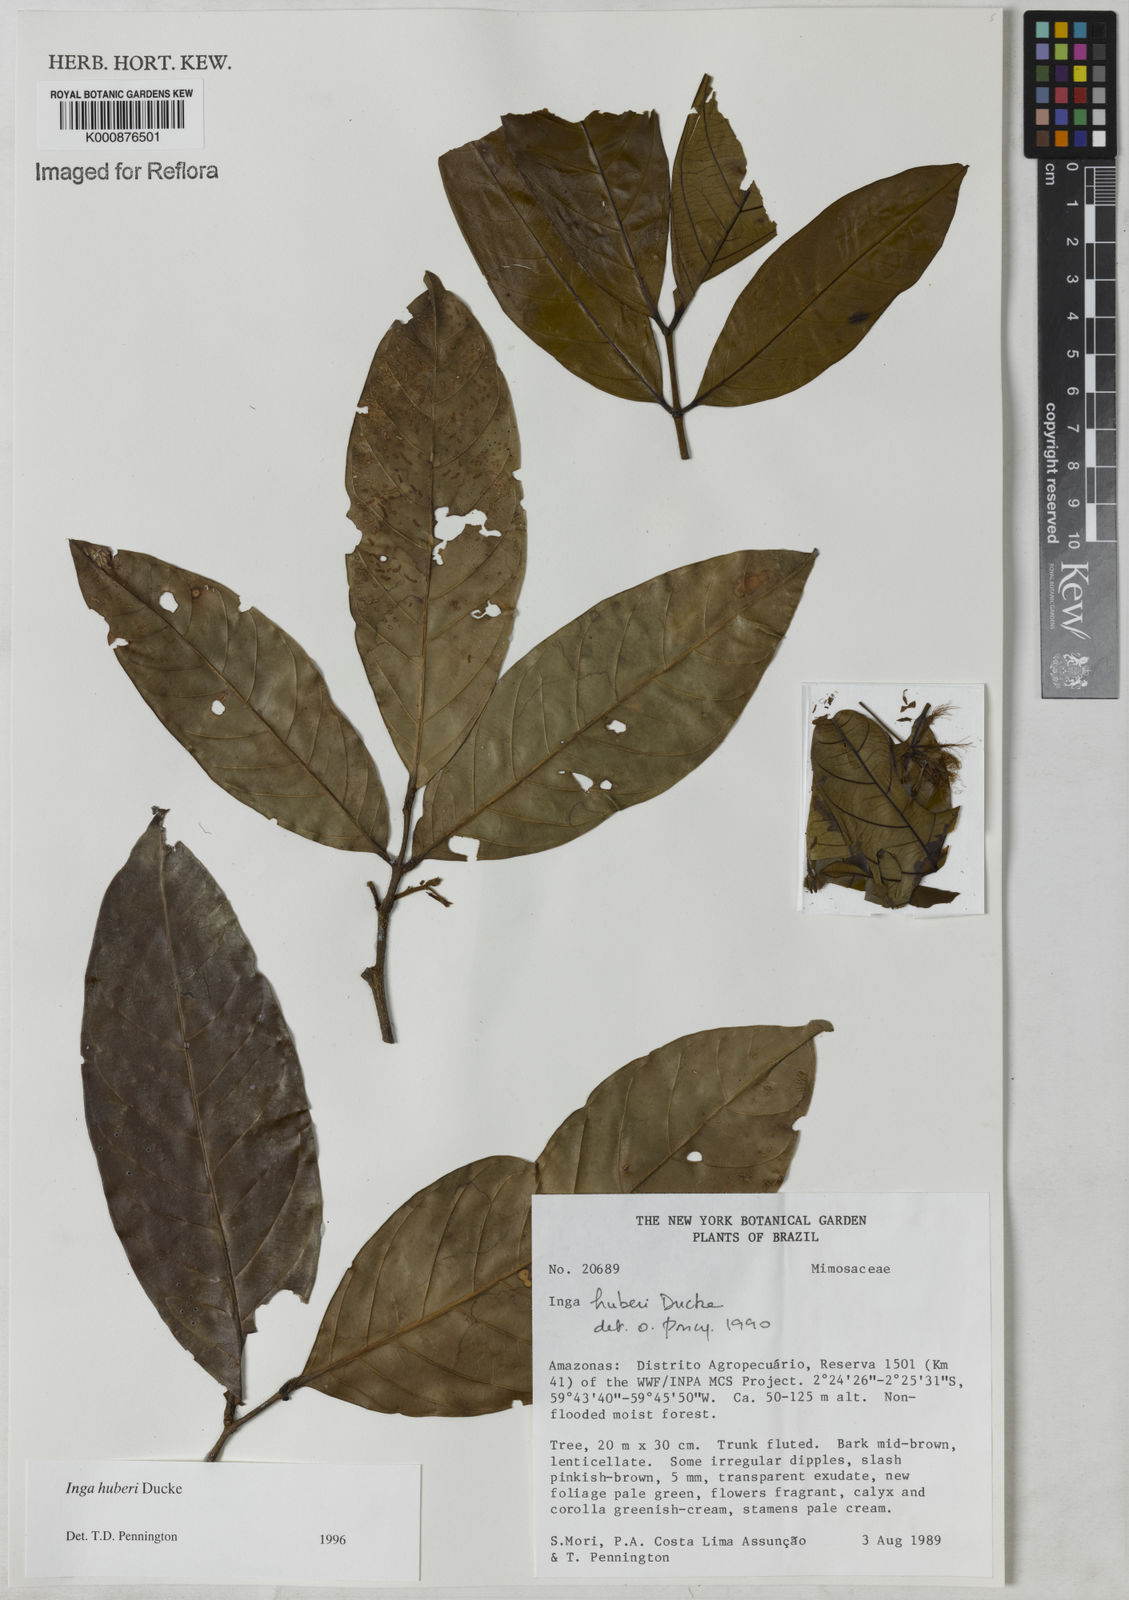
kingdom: Plantae
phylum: Tracheophyta
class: Magnoliopsida
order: Fabales
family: Fabaceae
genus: Inga
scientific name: Inga huberi
